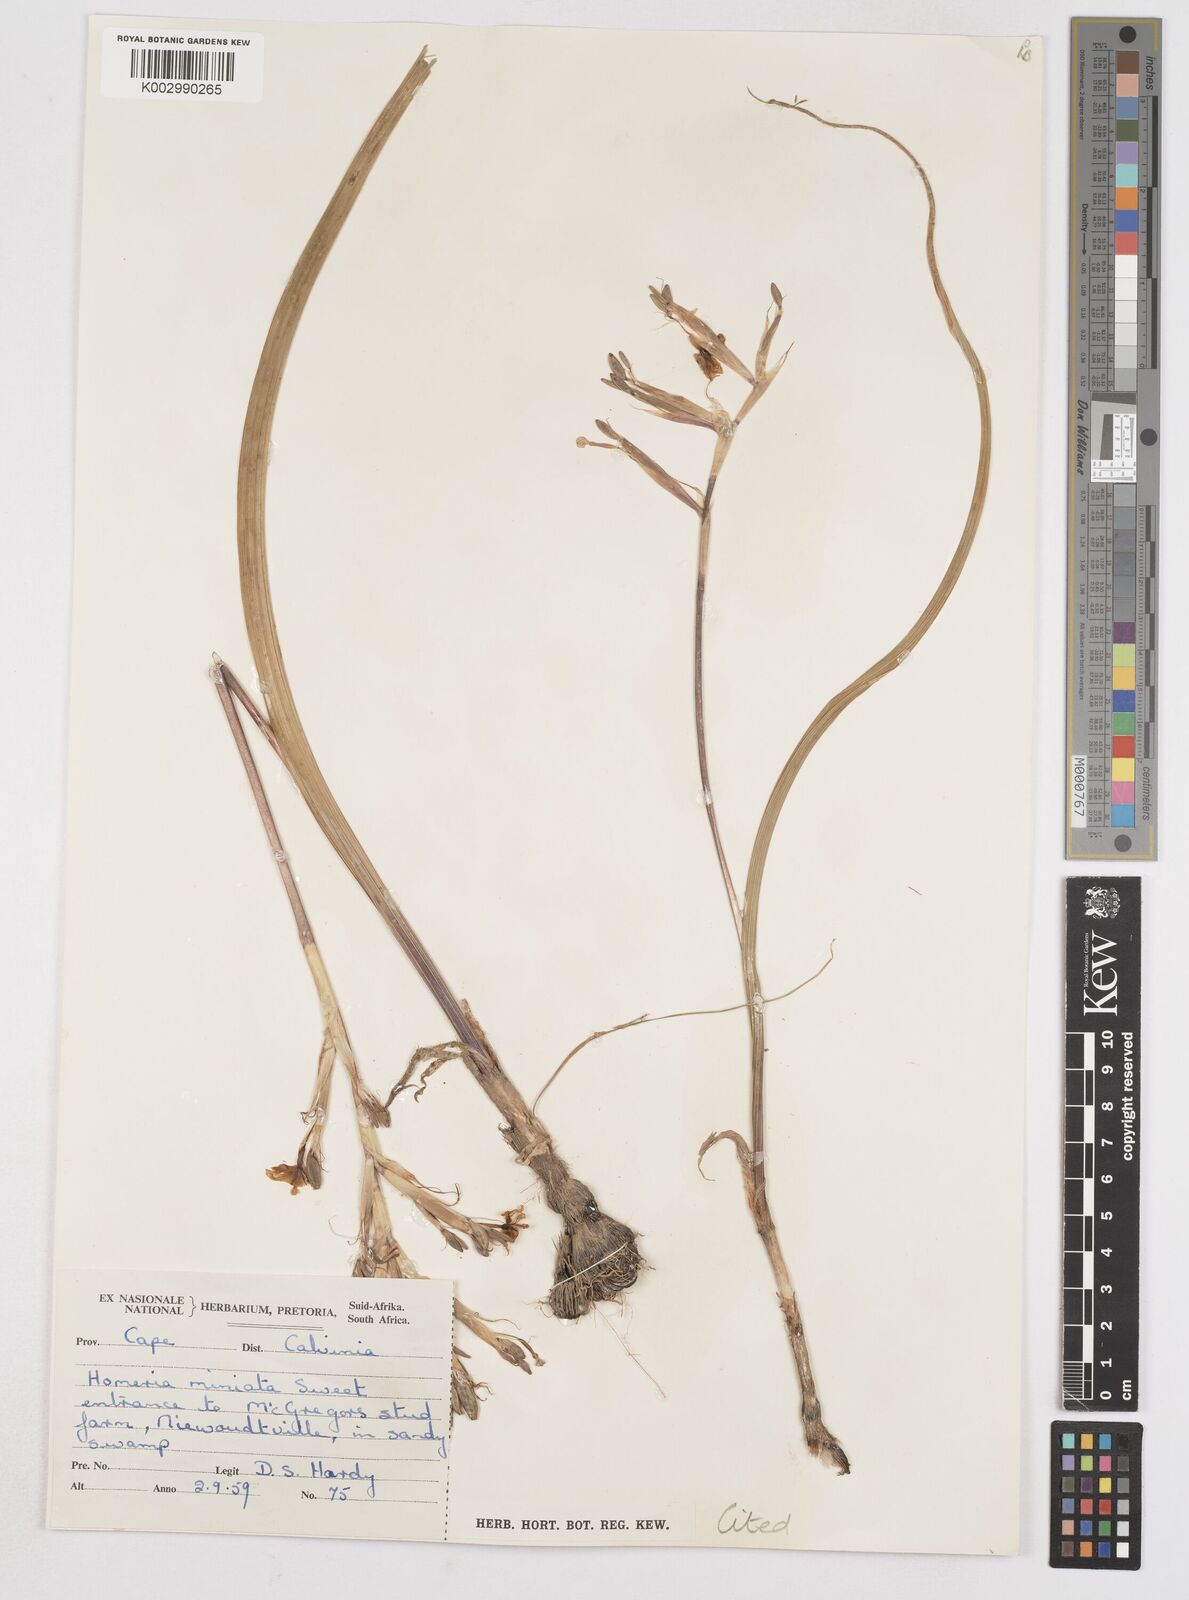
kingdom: Plantae
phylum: Tracheophyta
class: Liliopsida
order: Asparagales
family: Iridaceae
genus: Moraea
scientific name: Moraea bifida
